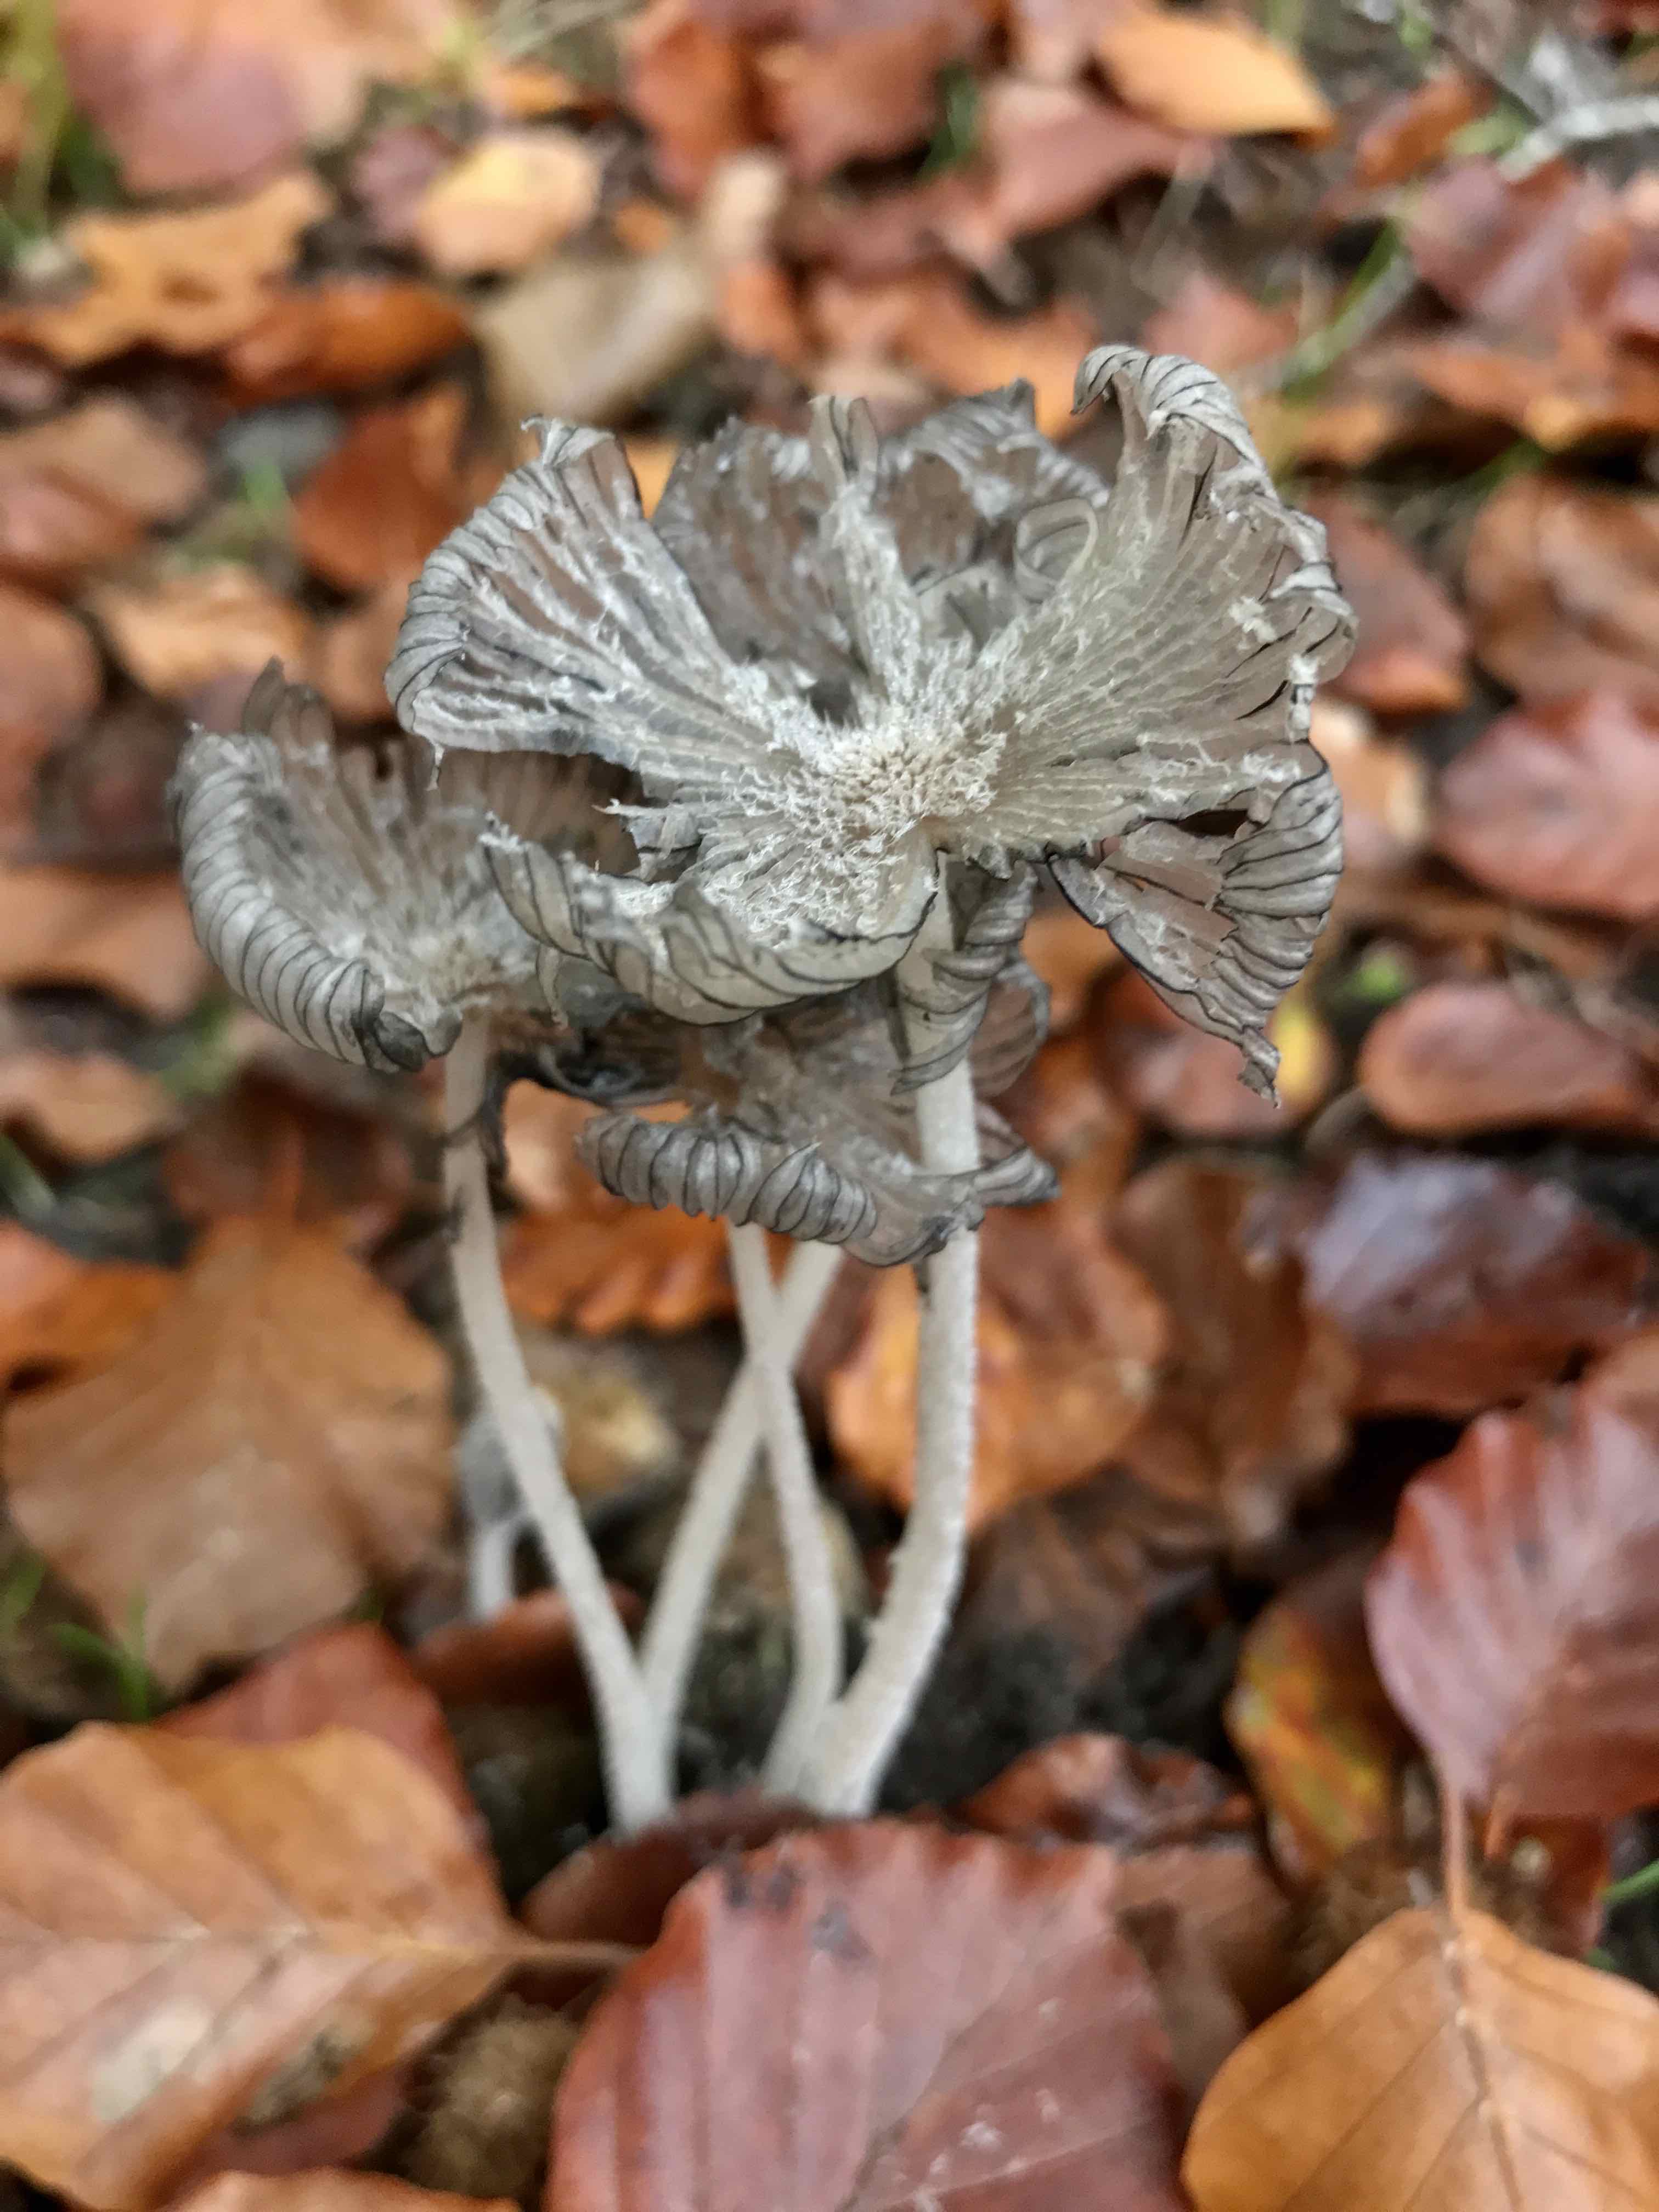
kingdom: Fungi
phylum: Basidiomycota
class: Agaricomycetes
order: Agaricales
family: Psathyrellaceae
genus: Coprinopsis
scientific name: Coprinopsis lagopus
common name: dunstokket blækhat
